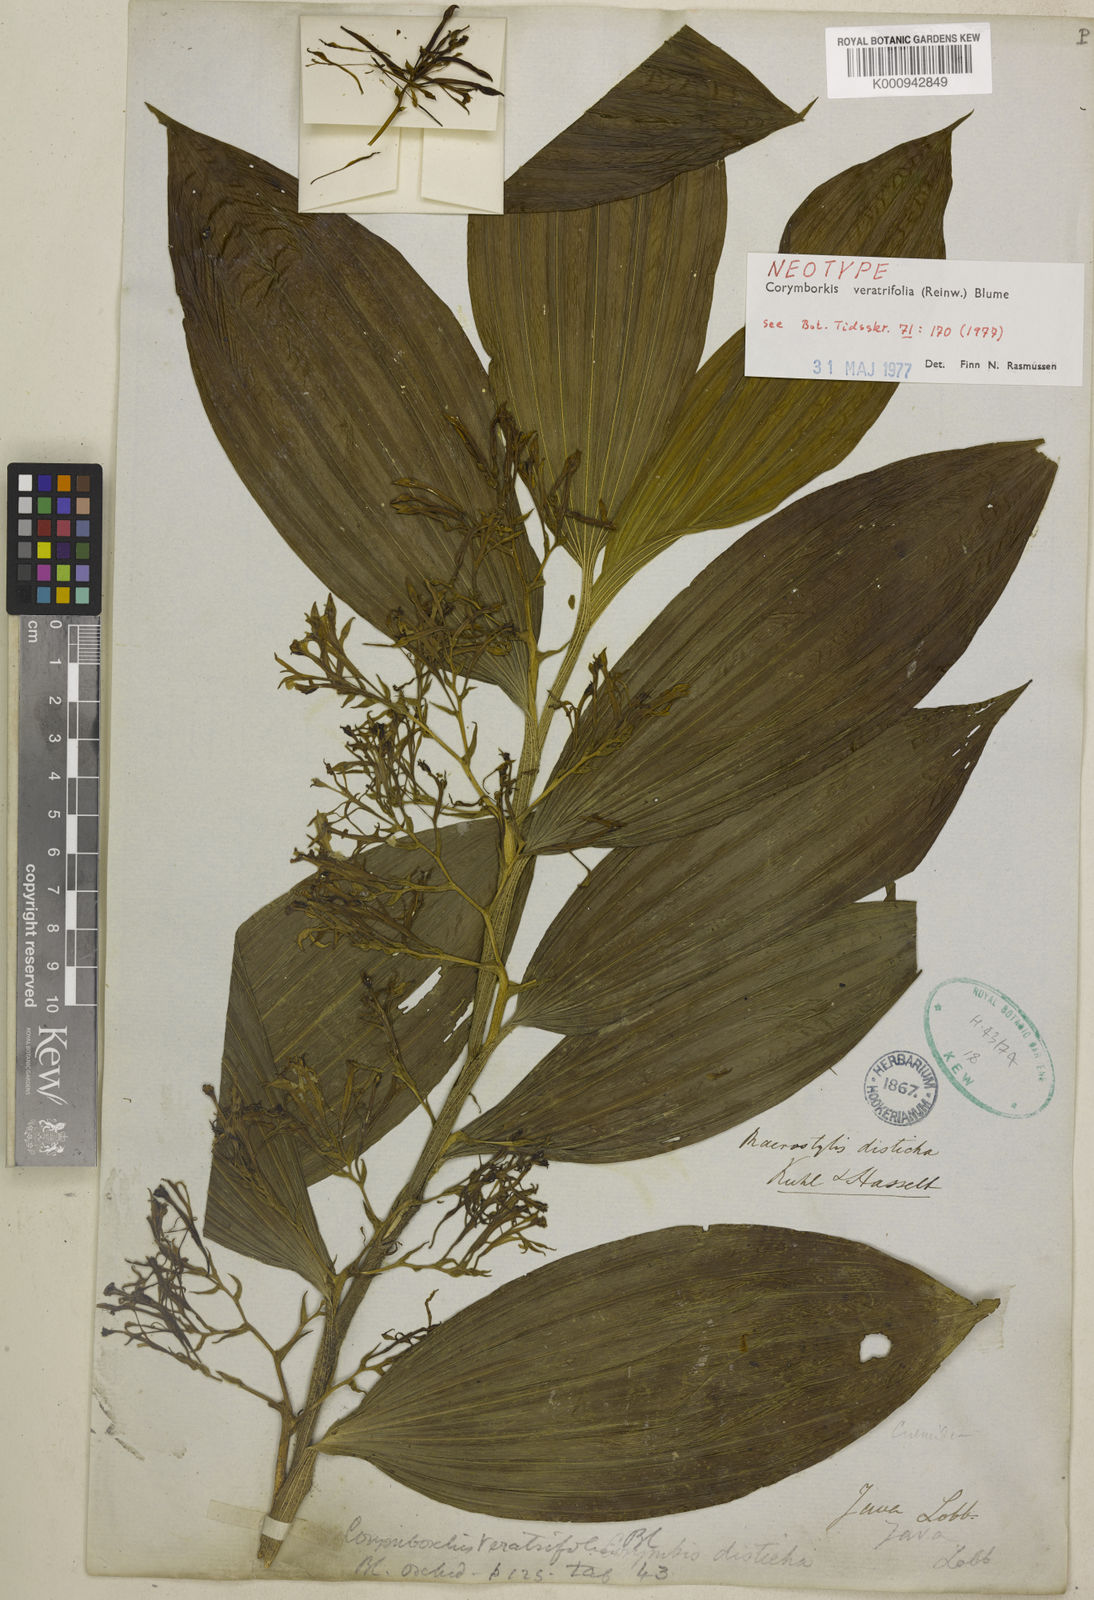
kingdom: Plantae
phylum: Tracheophyta
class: Liliopsida
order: Asparagales
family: Orchidaceae
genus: Corymborkis
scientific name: Corymborkis veratrifolia
